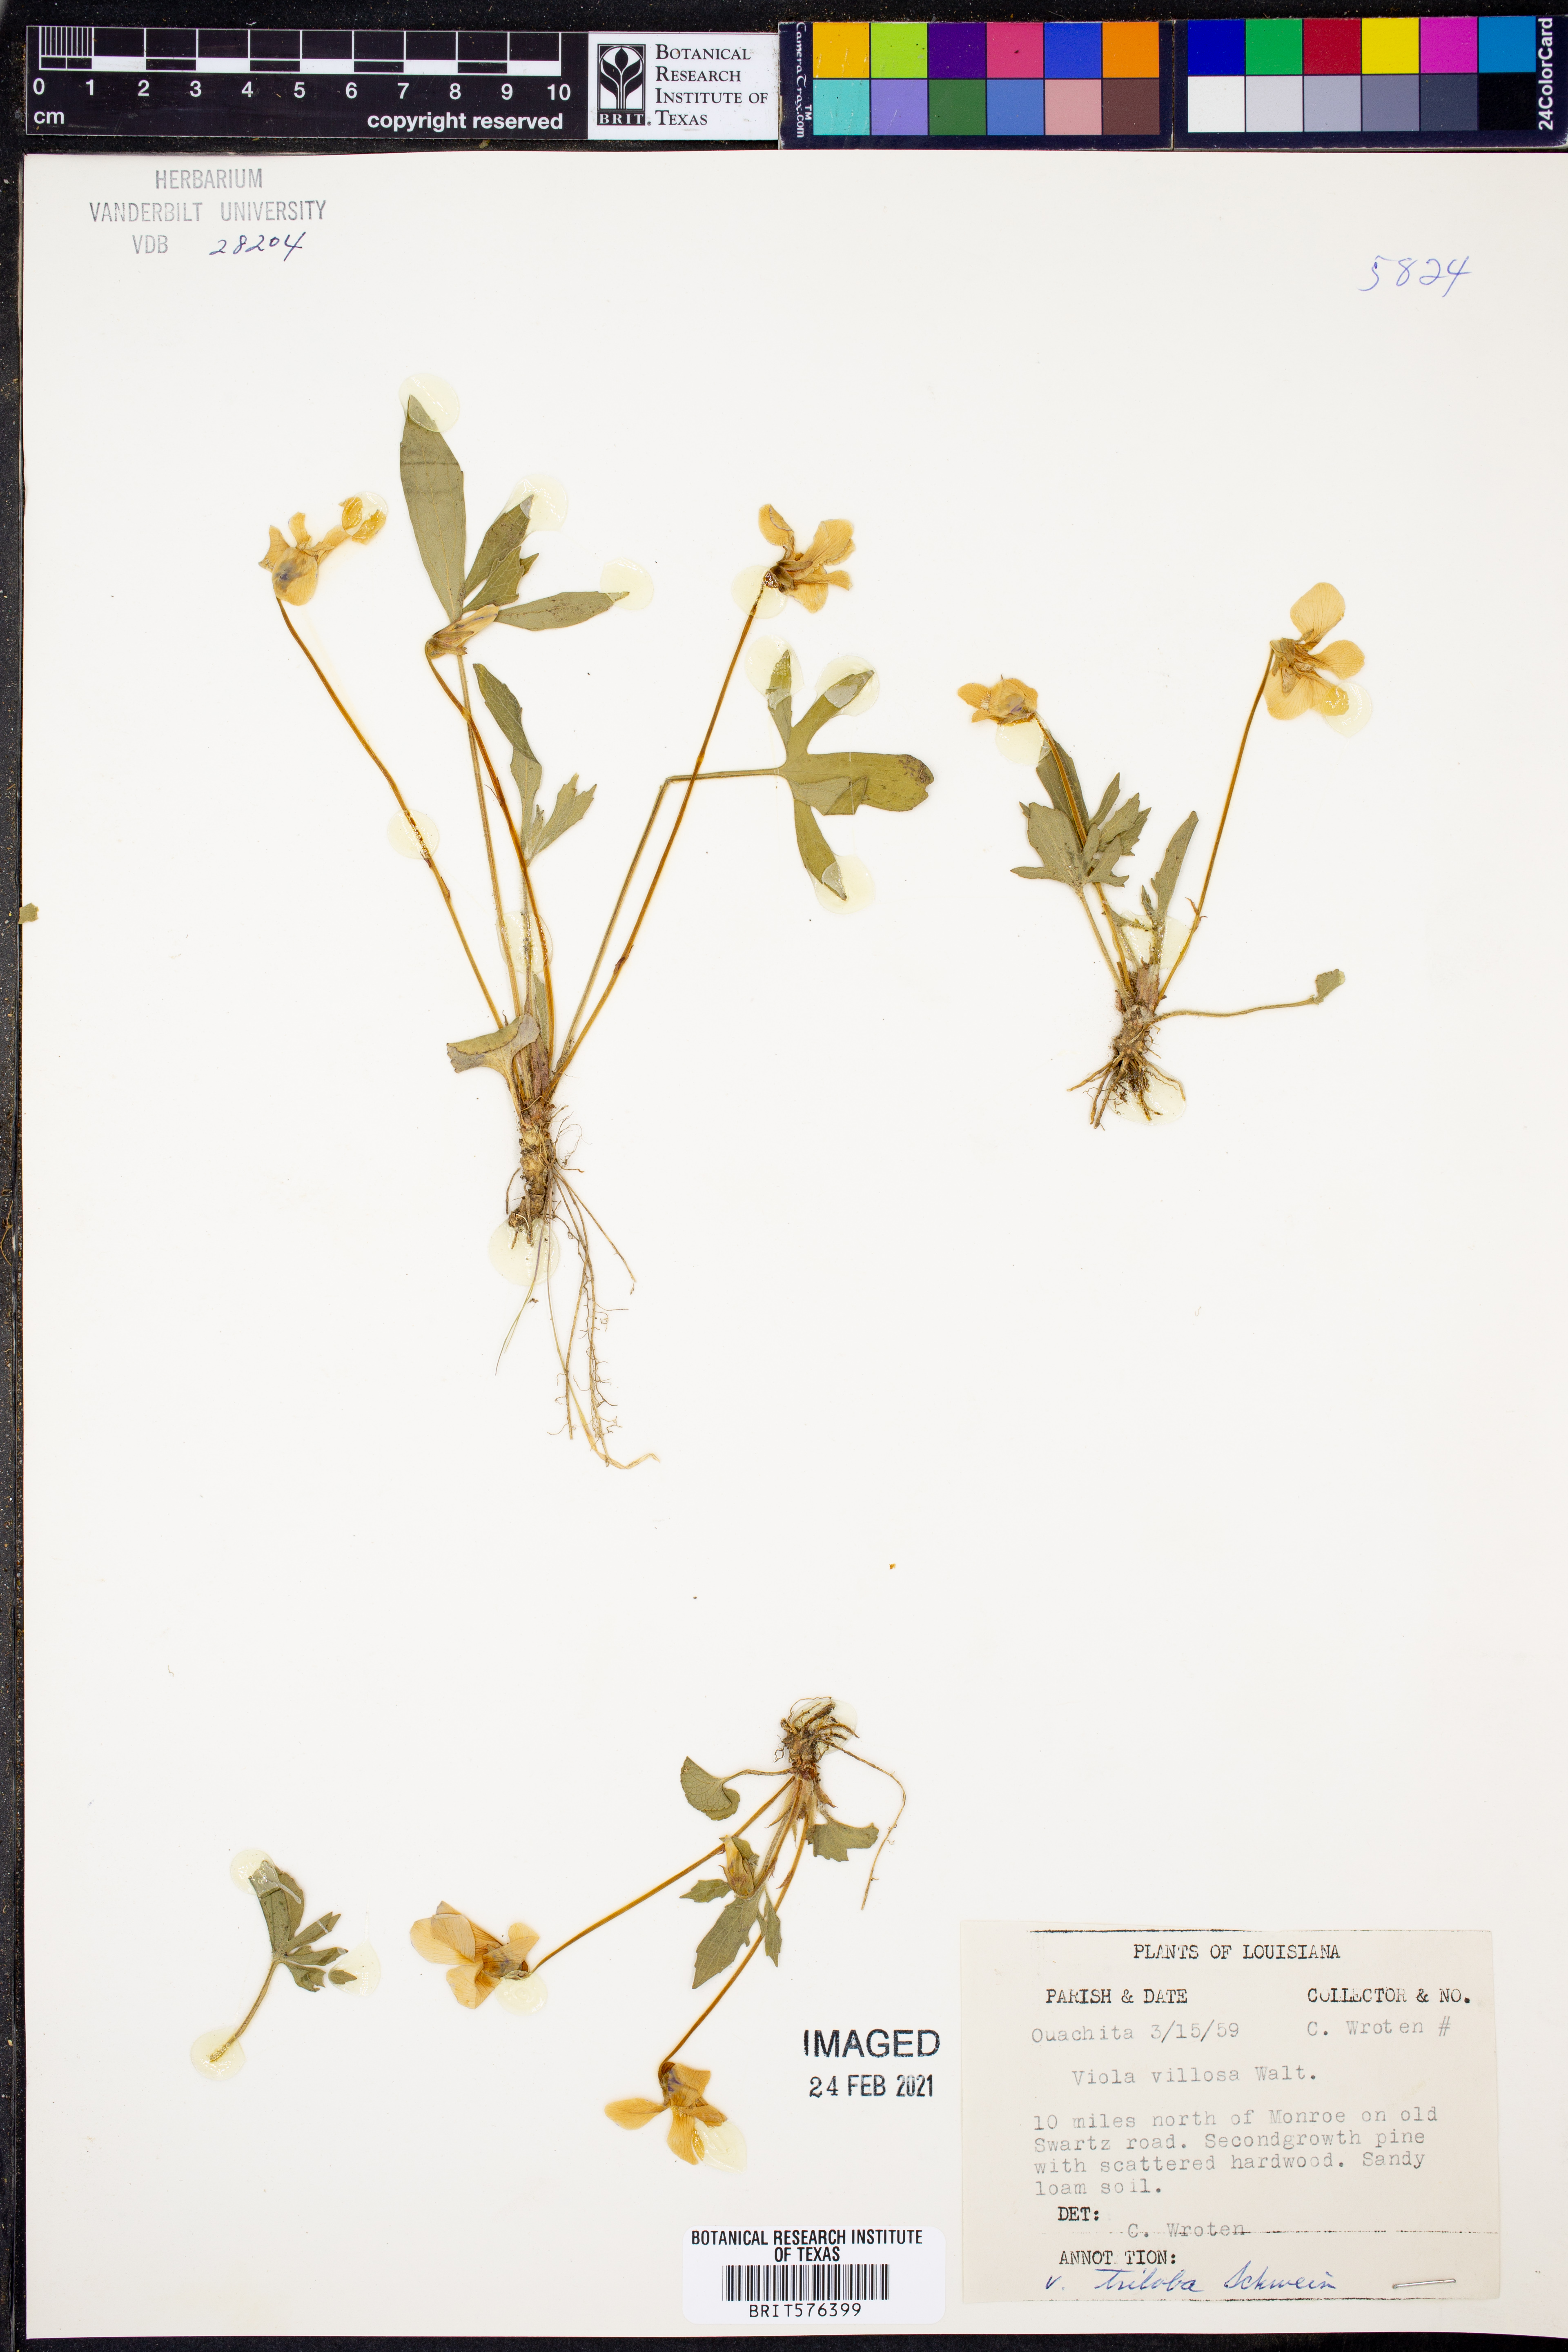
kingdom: Plantae
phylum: Tracheophyta
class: Magnoliopsida
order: Malpighiales
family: Violaceae
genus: Viola
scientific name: Viola villosa
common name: Carolina violet
